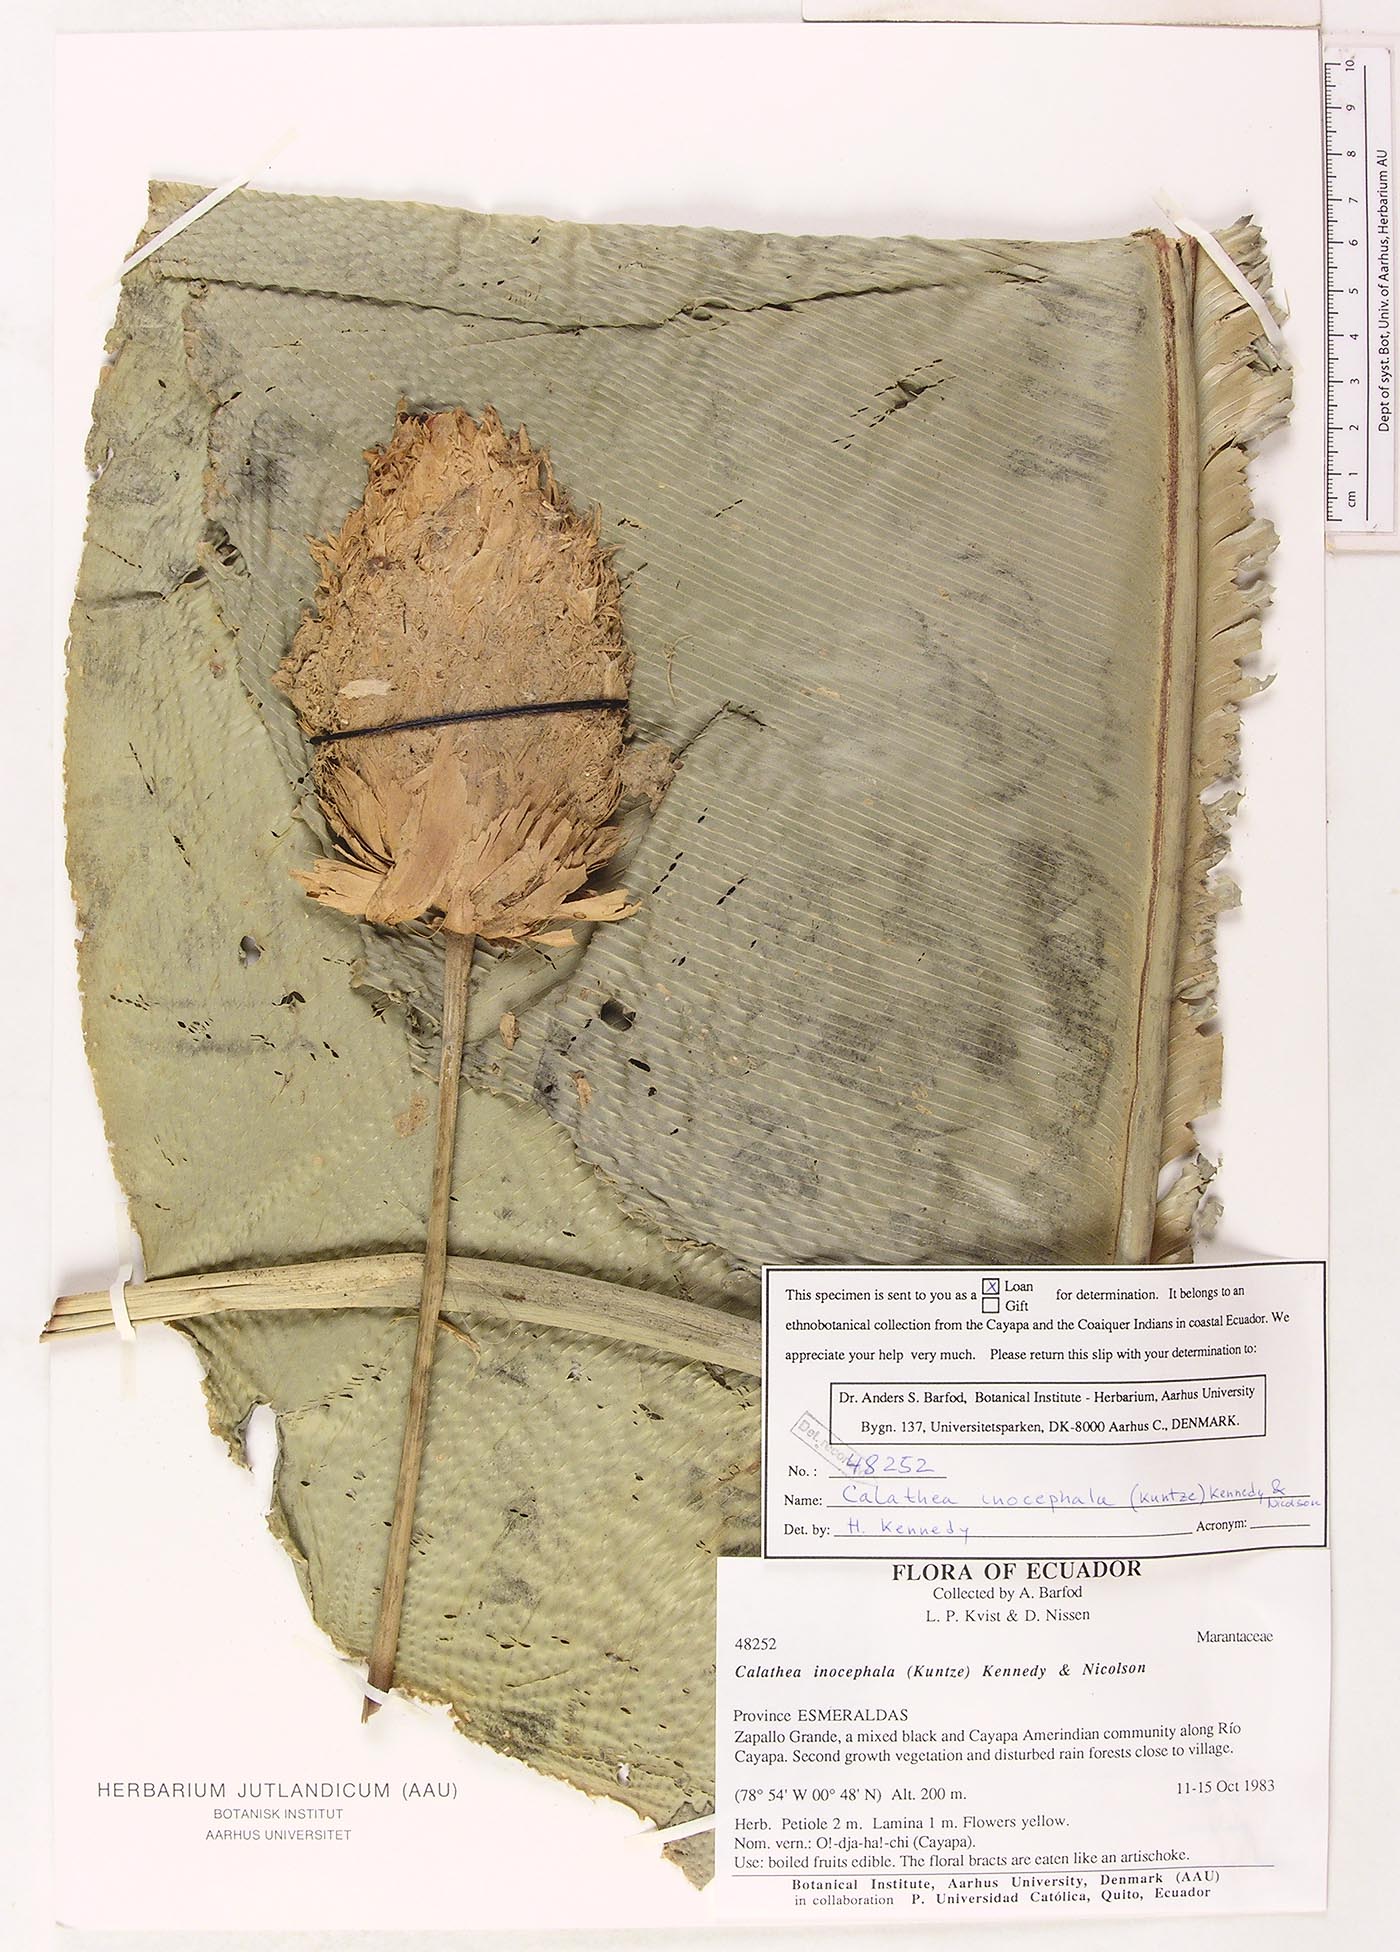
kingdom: Plantae
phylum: Tracheophyta
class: Liliopsida
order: Zingiberales
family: Marantaceae
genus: Goeppertia
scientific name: Goeppertia inocephala
